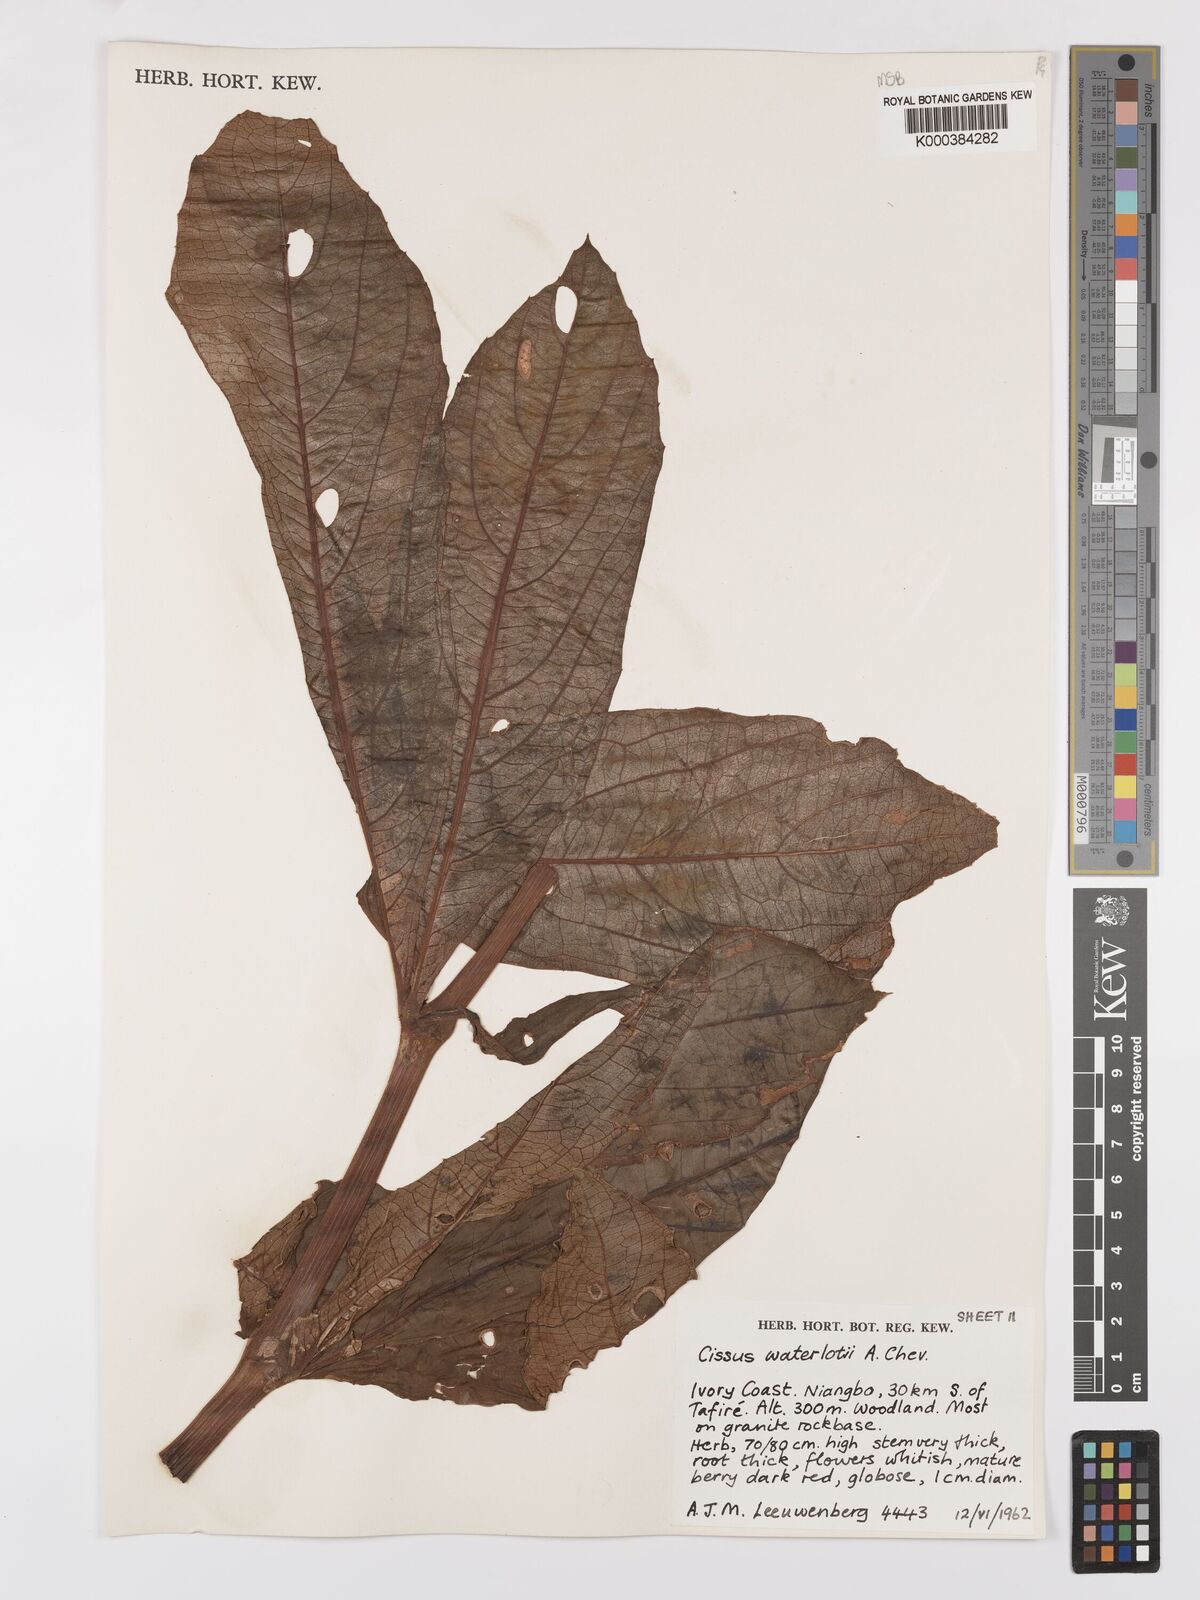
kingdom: Plantae
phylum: Tracheophyta
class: Magnoliopsida
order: Vitales
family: Vitaceae
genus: Cyphostemma
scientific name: Cyphostemma waterlotii
